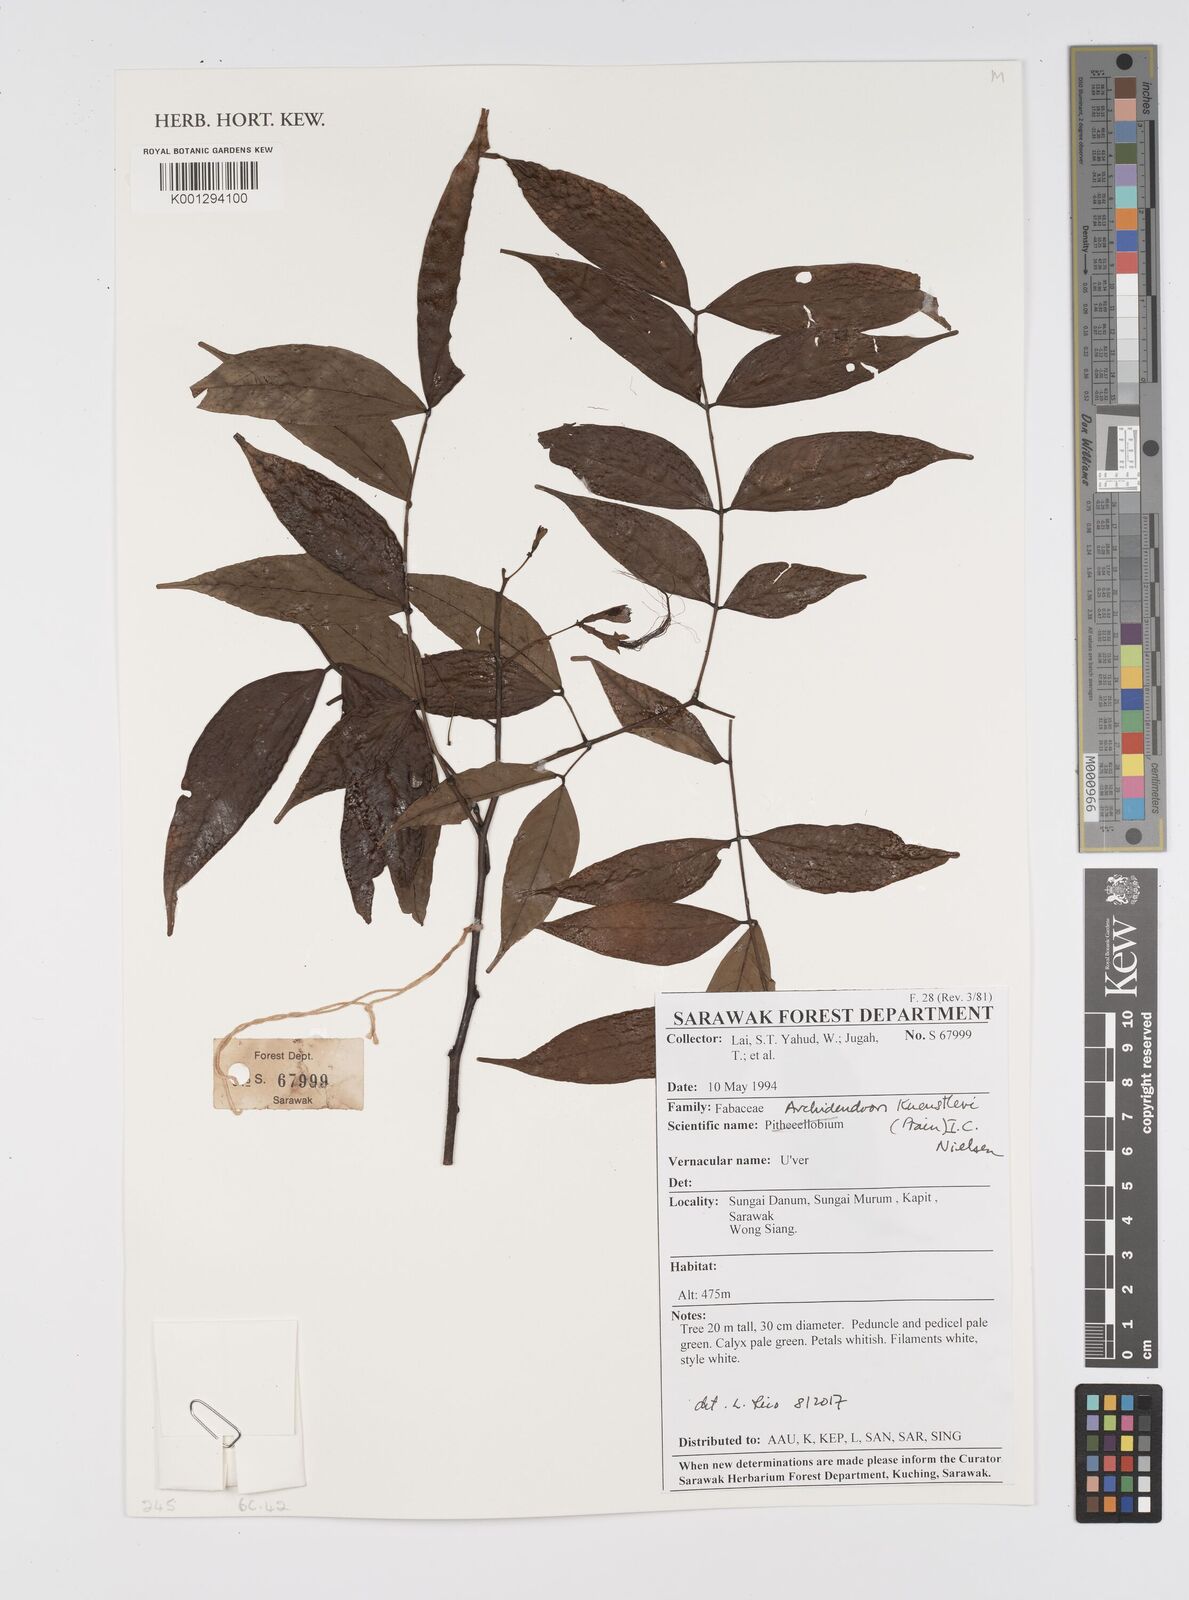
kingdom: Plantae
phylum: Tracheophyta
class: Magnoliopsida
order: Fabales
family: Fabaceae
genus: Archidendron
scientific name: Archidendron
